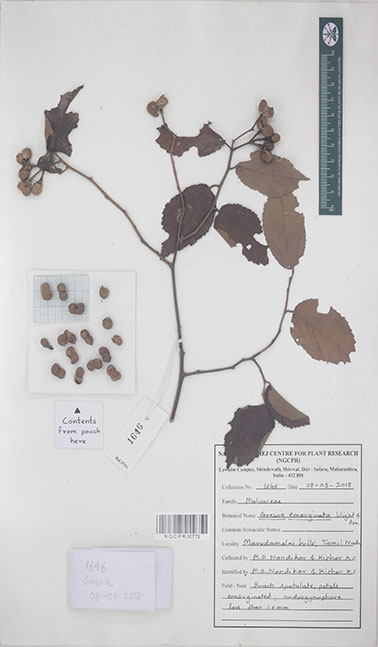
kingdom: Plantae
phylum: Tracheophyta
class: Magnoliopsida
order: Malvales
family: Malvaceae
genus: Grewia
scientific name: Grewia oppositifolia
